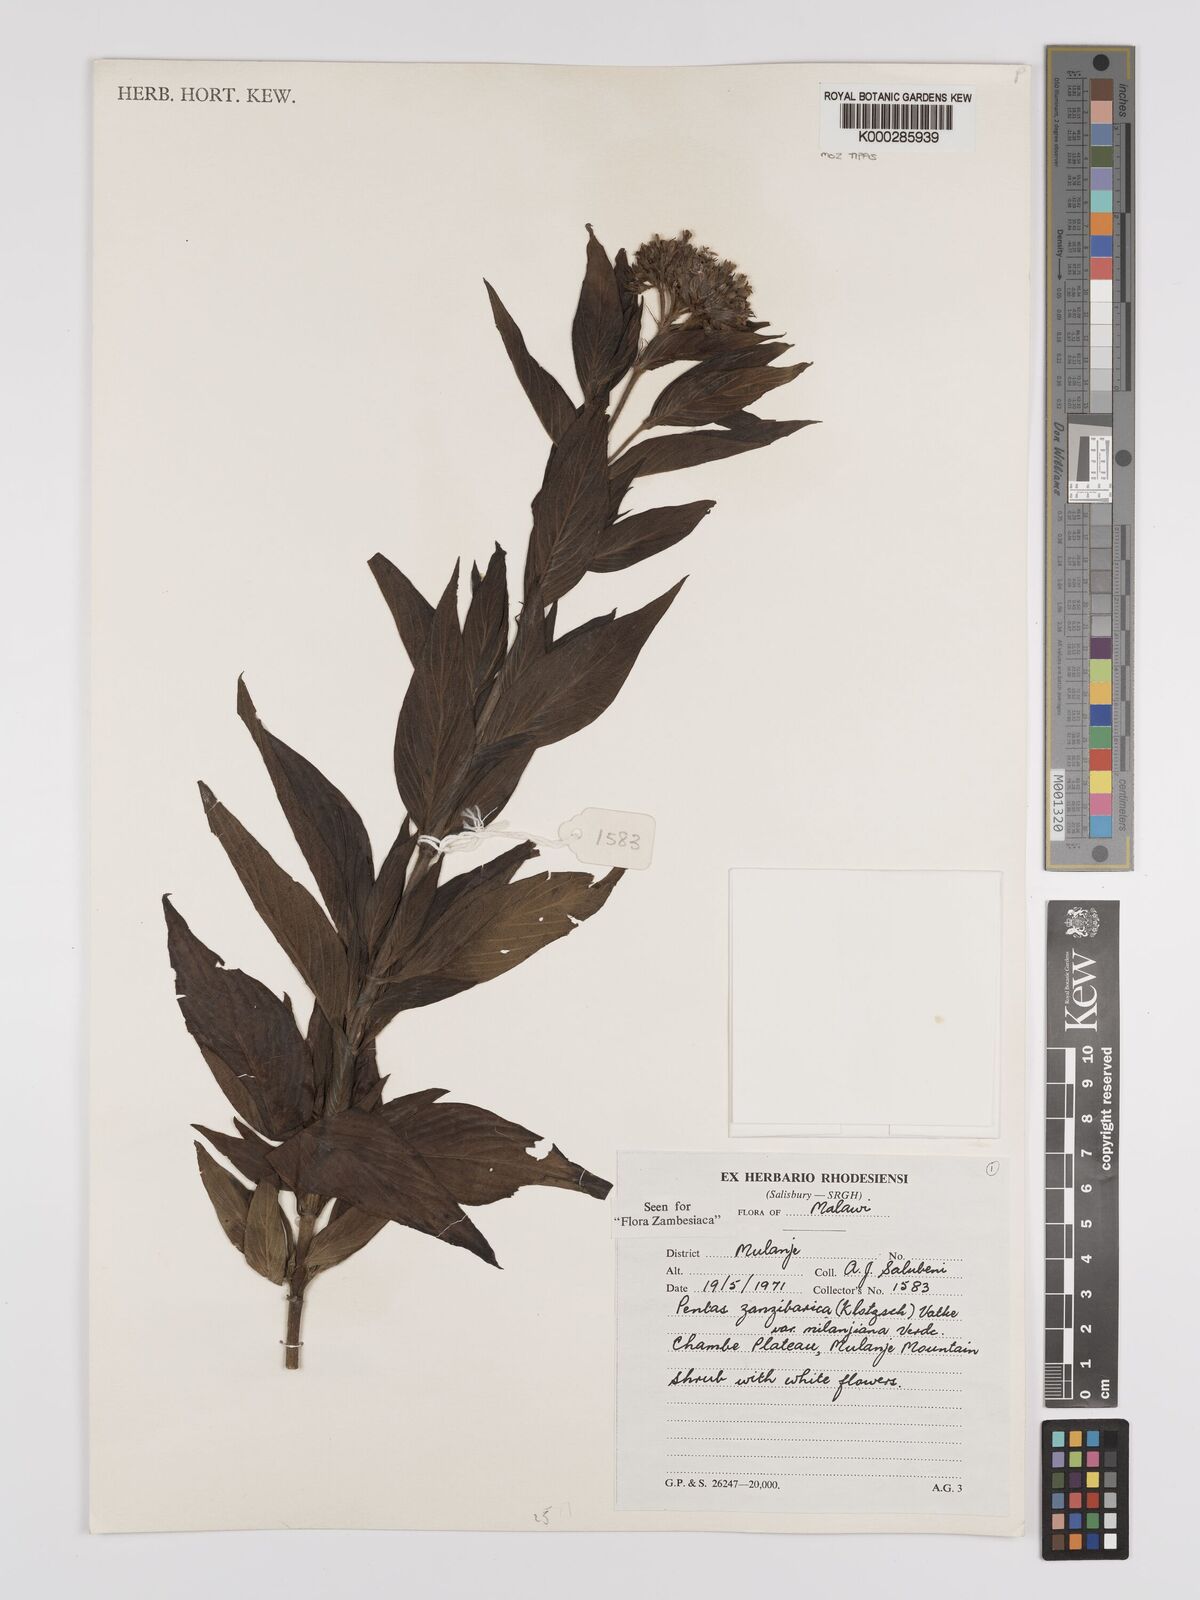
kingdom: Plantae
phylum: Tracheophyta
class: Magnoliopsida
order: Gentianales
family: Rubiaceae
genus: Pentas
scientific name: Pentas zanzibarica
